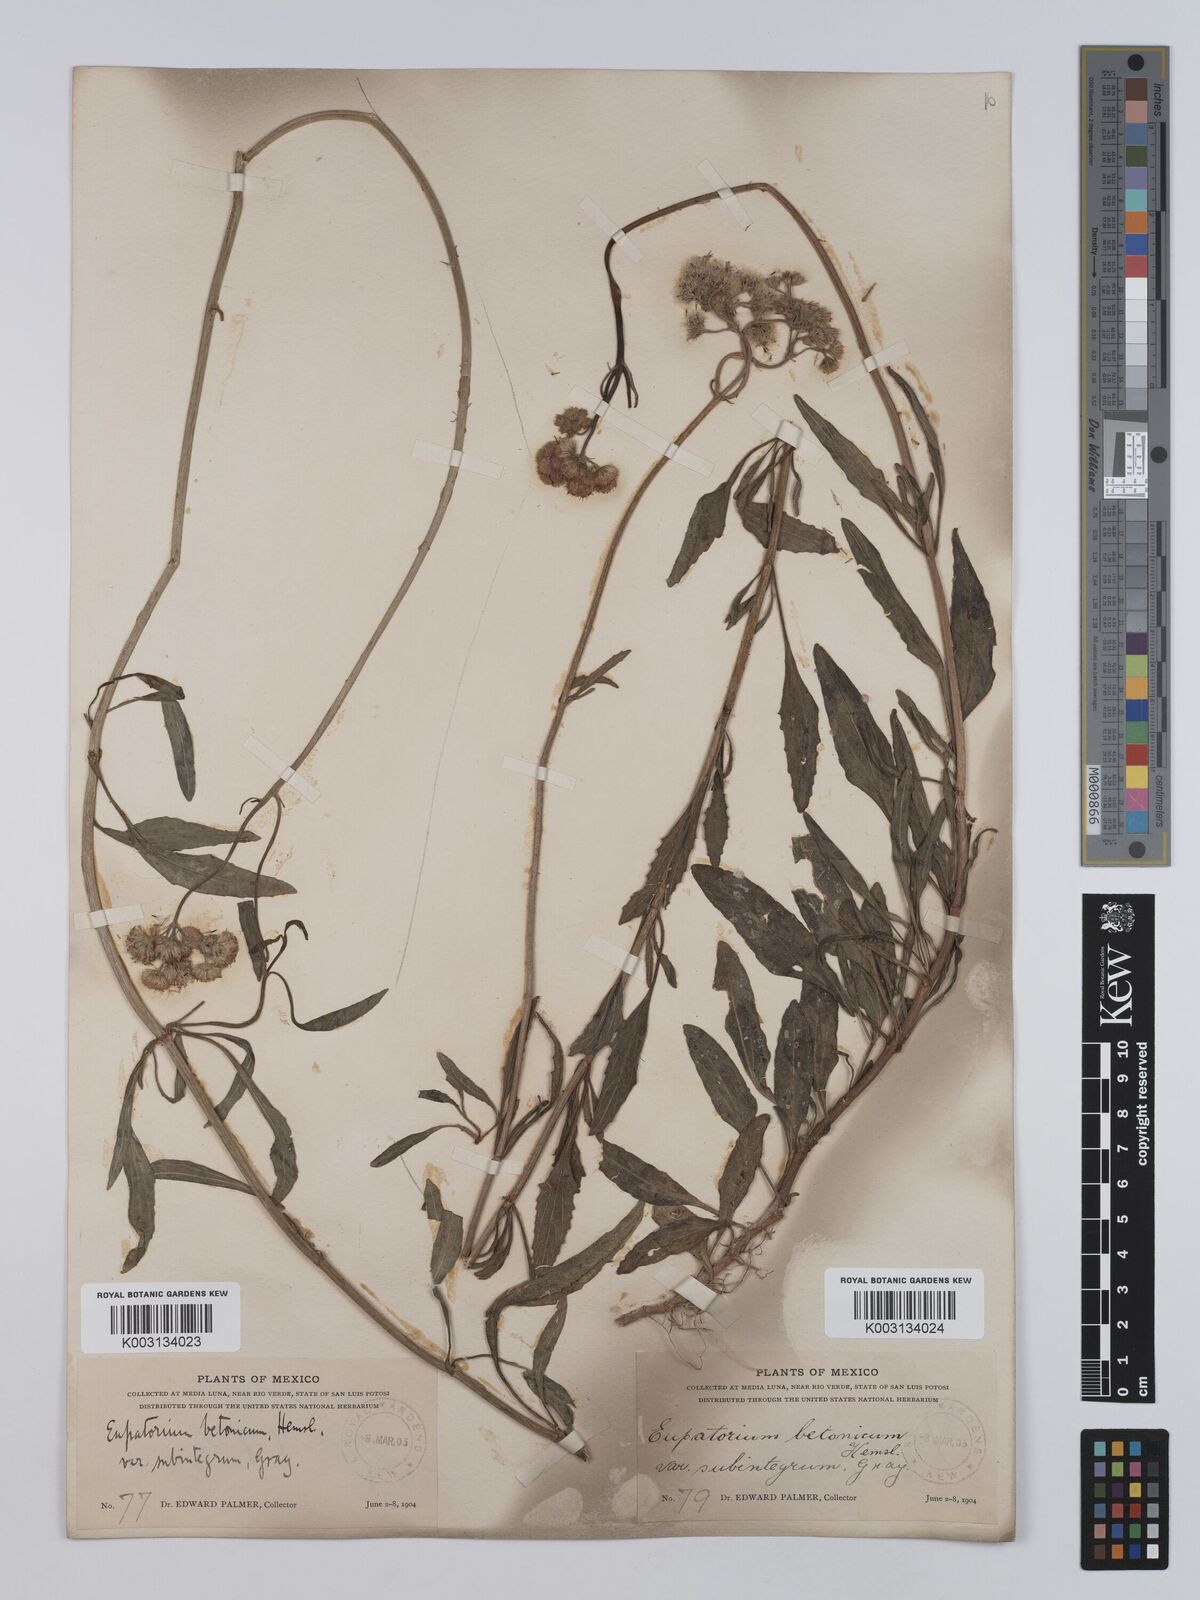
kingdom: Plantae
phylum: Tracheophyta
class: Magnoliopsida
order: Asterales
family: Asteraceae
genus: Conoclinium
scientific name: Conoclinium betonicifolium
